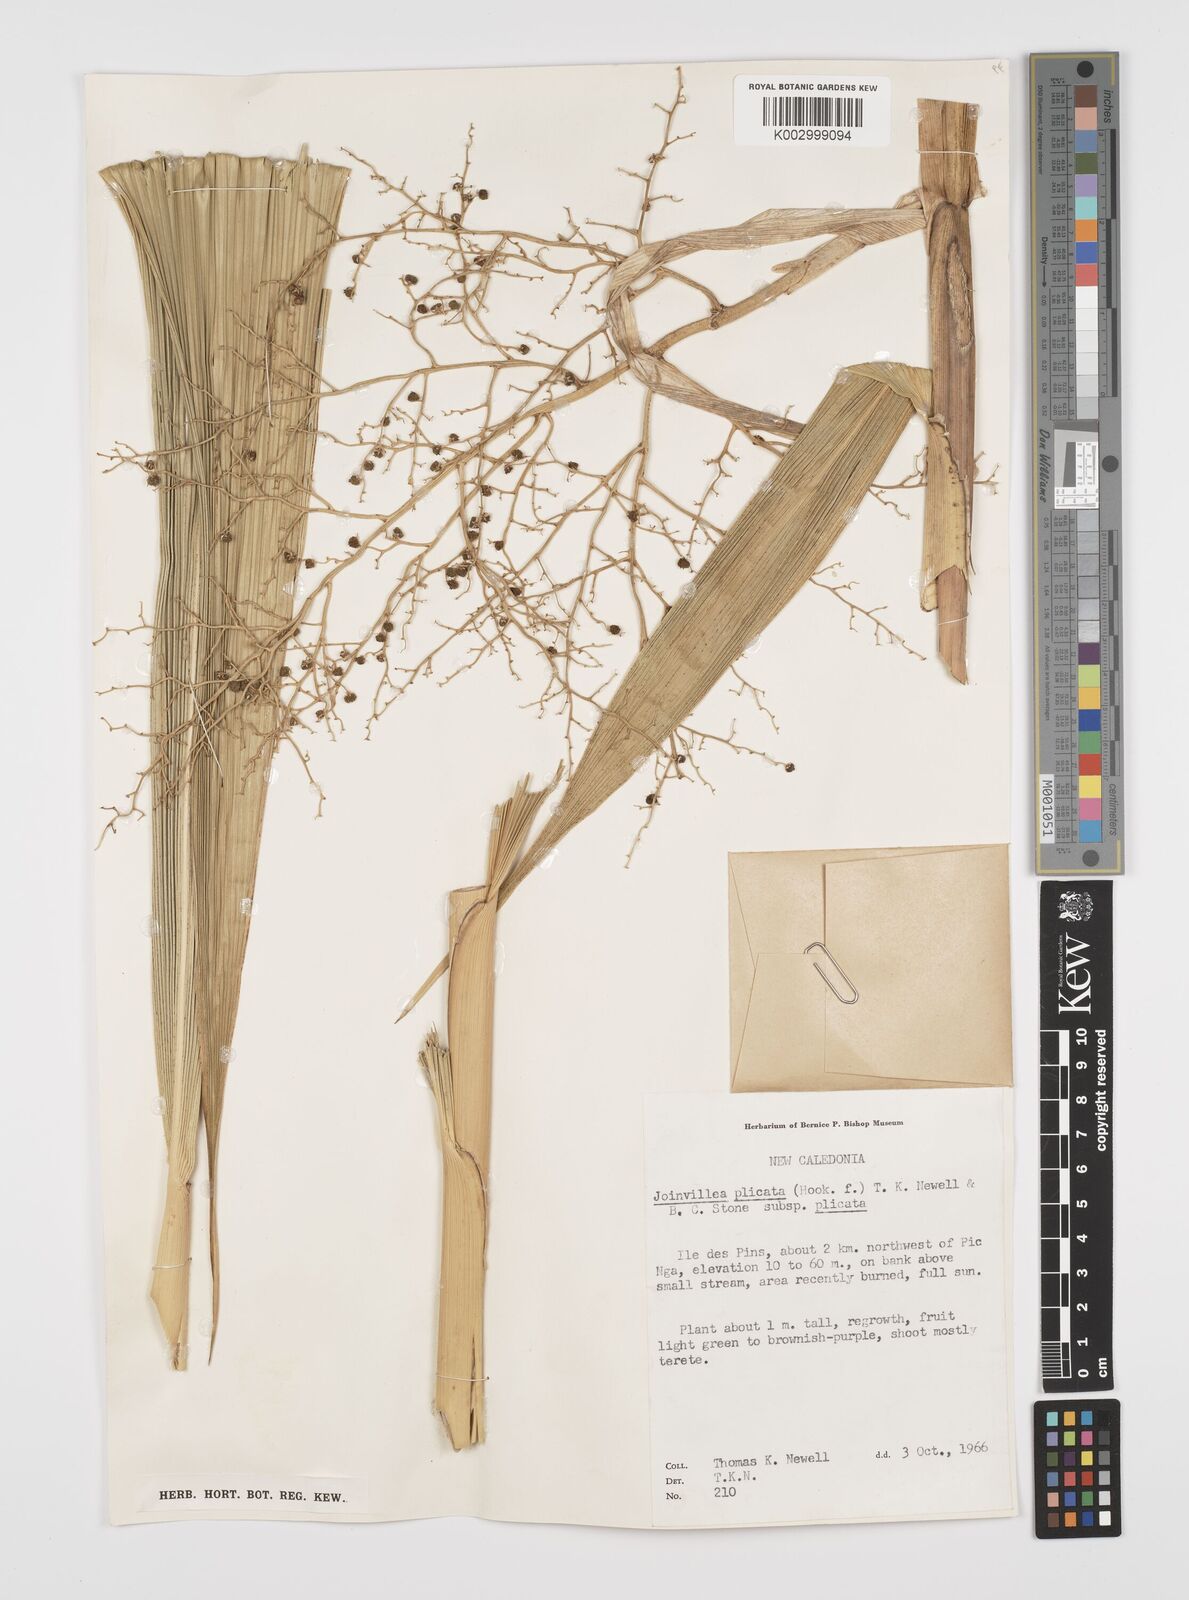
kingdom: Plantae
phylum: Tracheophyta
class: Liliopsida
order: Poales
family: Joinvilleaceae
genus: Joinvillea
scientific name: Joinvillea plicata
